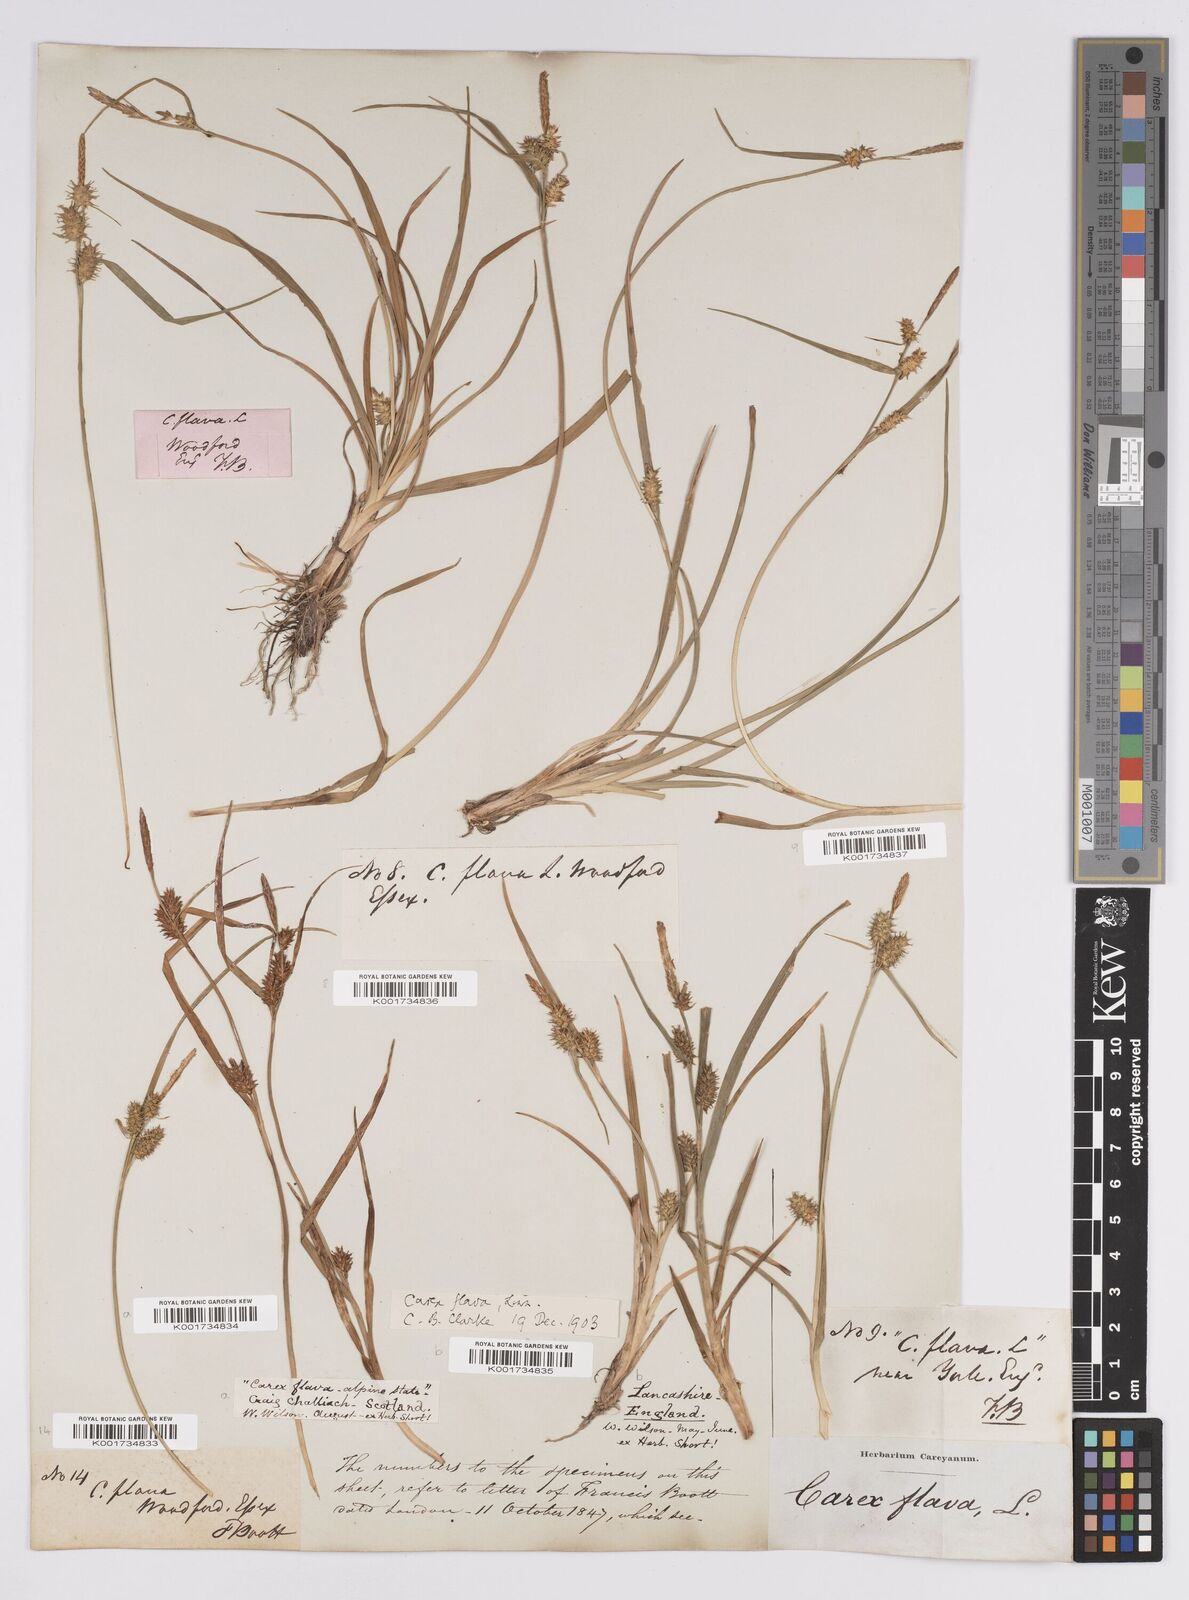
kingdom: Plantae
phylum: Tracheophyta
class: Liliopsida
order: Poales
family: Cyperaceae
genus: Carex
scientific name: Carex flava
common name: Large yellow-sedge
